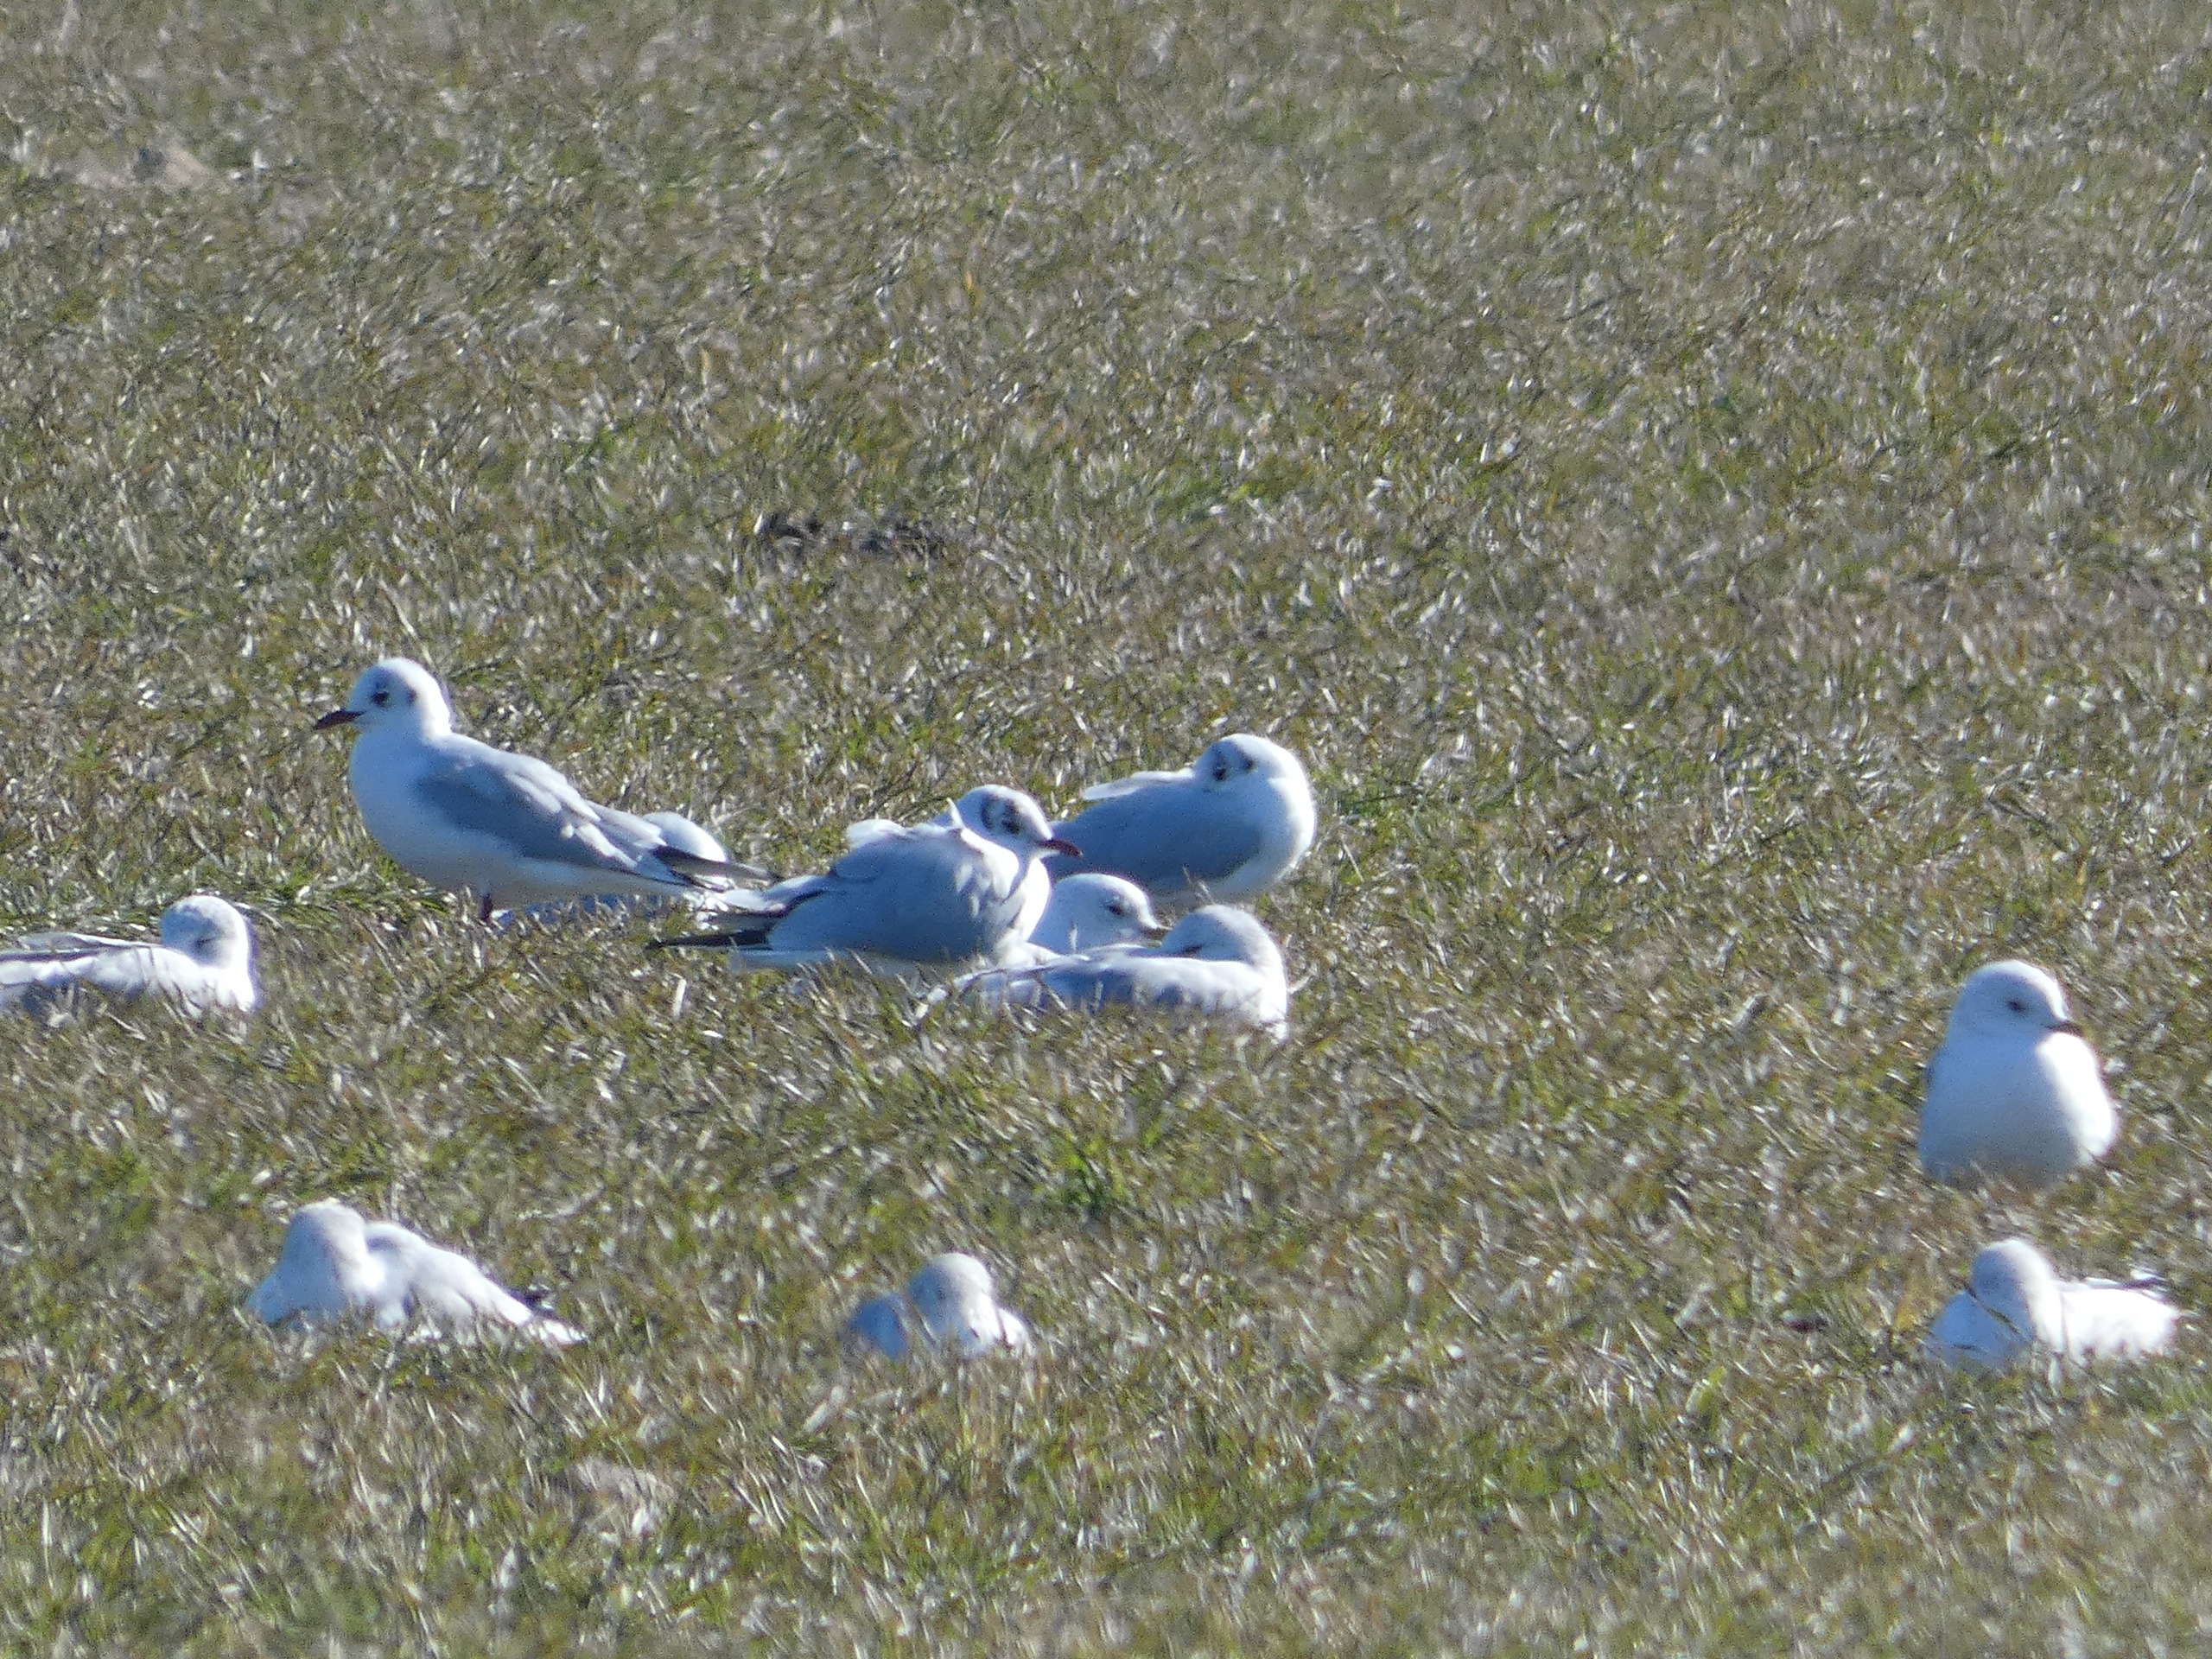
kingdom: Animalia
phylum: Chordata
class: Aves
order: Charadriiformes
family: Laridae
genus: Chroicocephalus
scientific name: Chroicocephalus ridibundus
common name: Hættemåge
